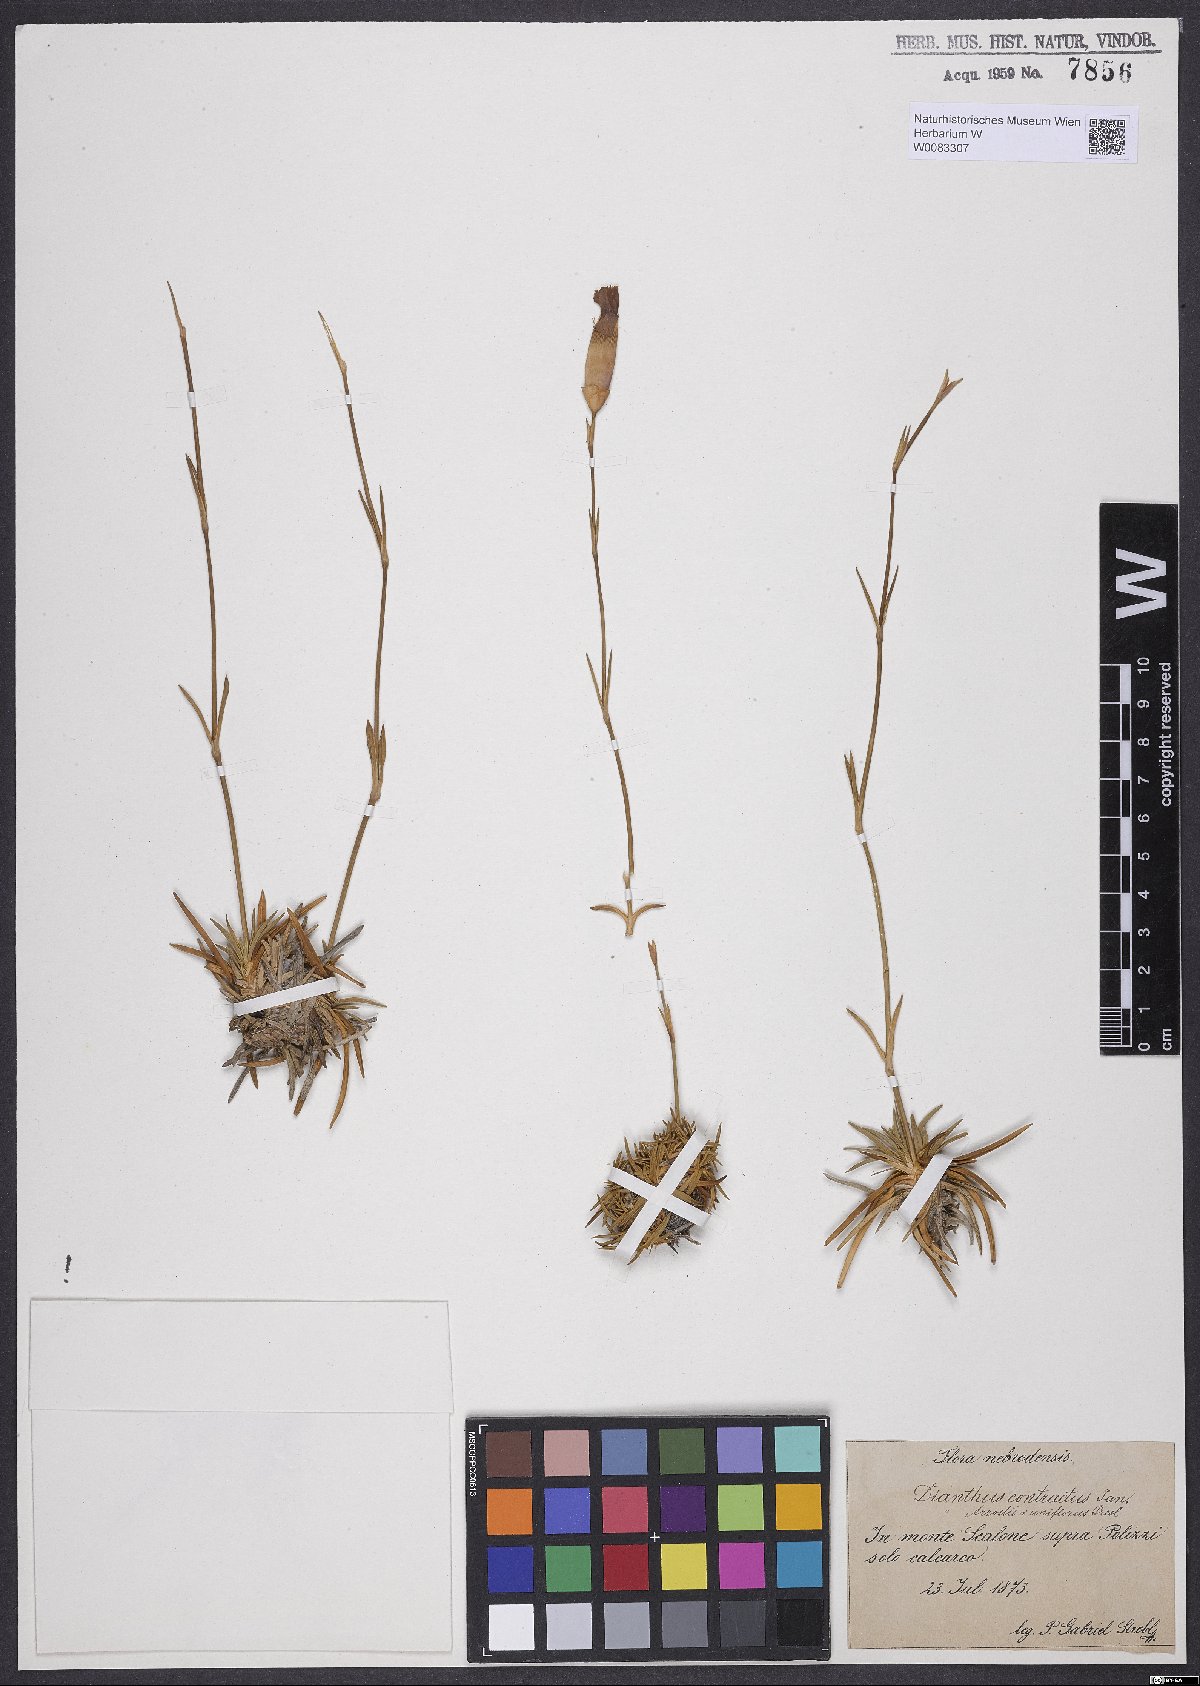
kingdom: Plantae
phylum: Tracheophyta
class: Magnoliopsida
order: Caryophyllales
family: Caryophyllaceae
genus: Dianthus
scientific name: Dianthus arrostoi
